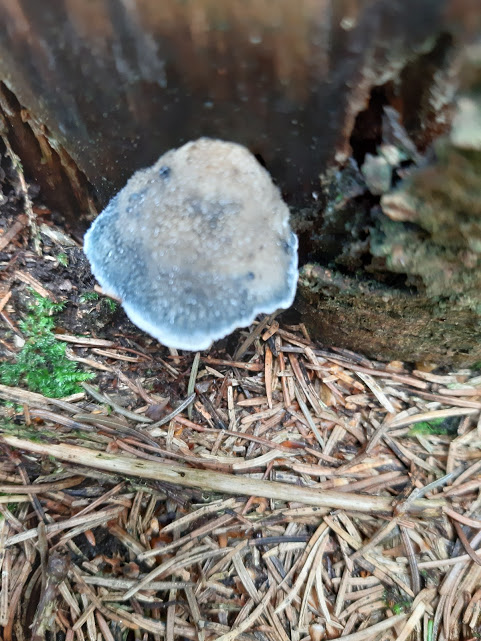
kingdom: Fungi
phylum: Basidiomycota
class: Agaricomycetes
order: Polyporales
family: Polyporaceae
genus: Cyanosporus
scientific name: Cyanosporus caesius
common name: blålig kødporesvamp
